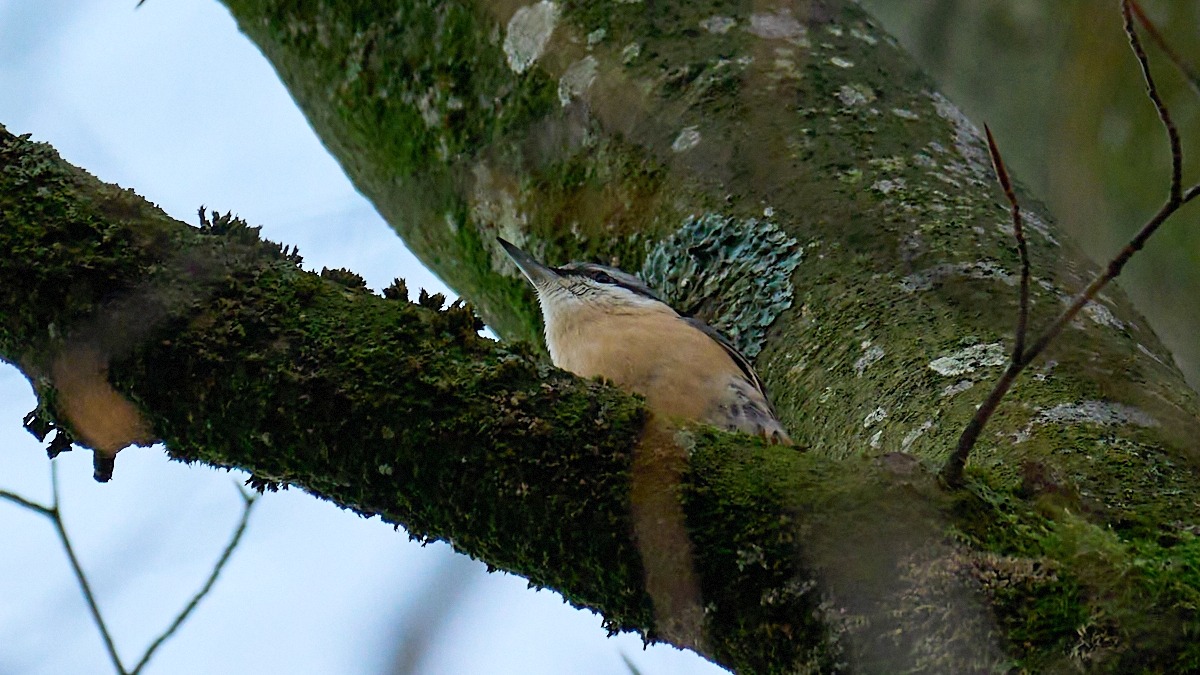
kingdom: Animalia
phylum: Chordata
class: Aves
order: Passeriformes
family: Sittidae
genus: Sitta
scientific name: Sitta europaea
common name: Mørkbuget spætmejse
